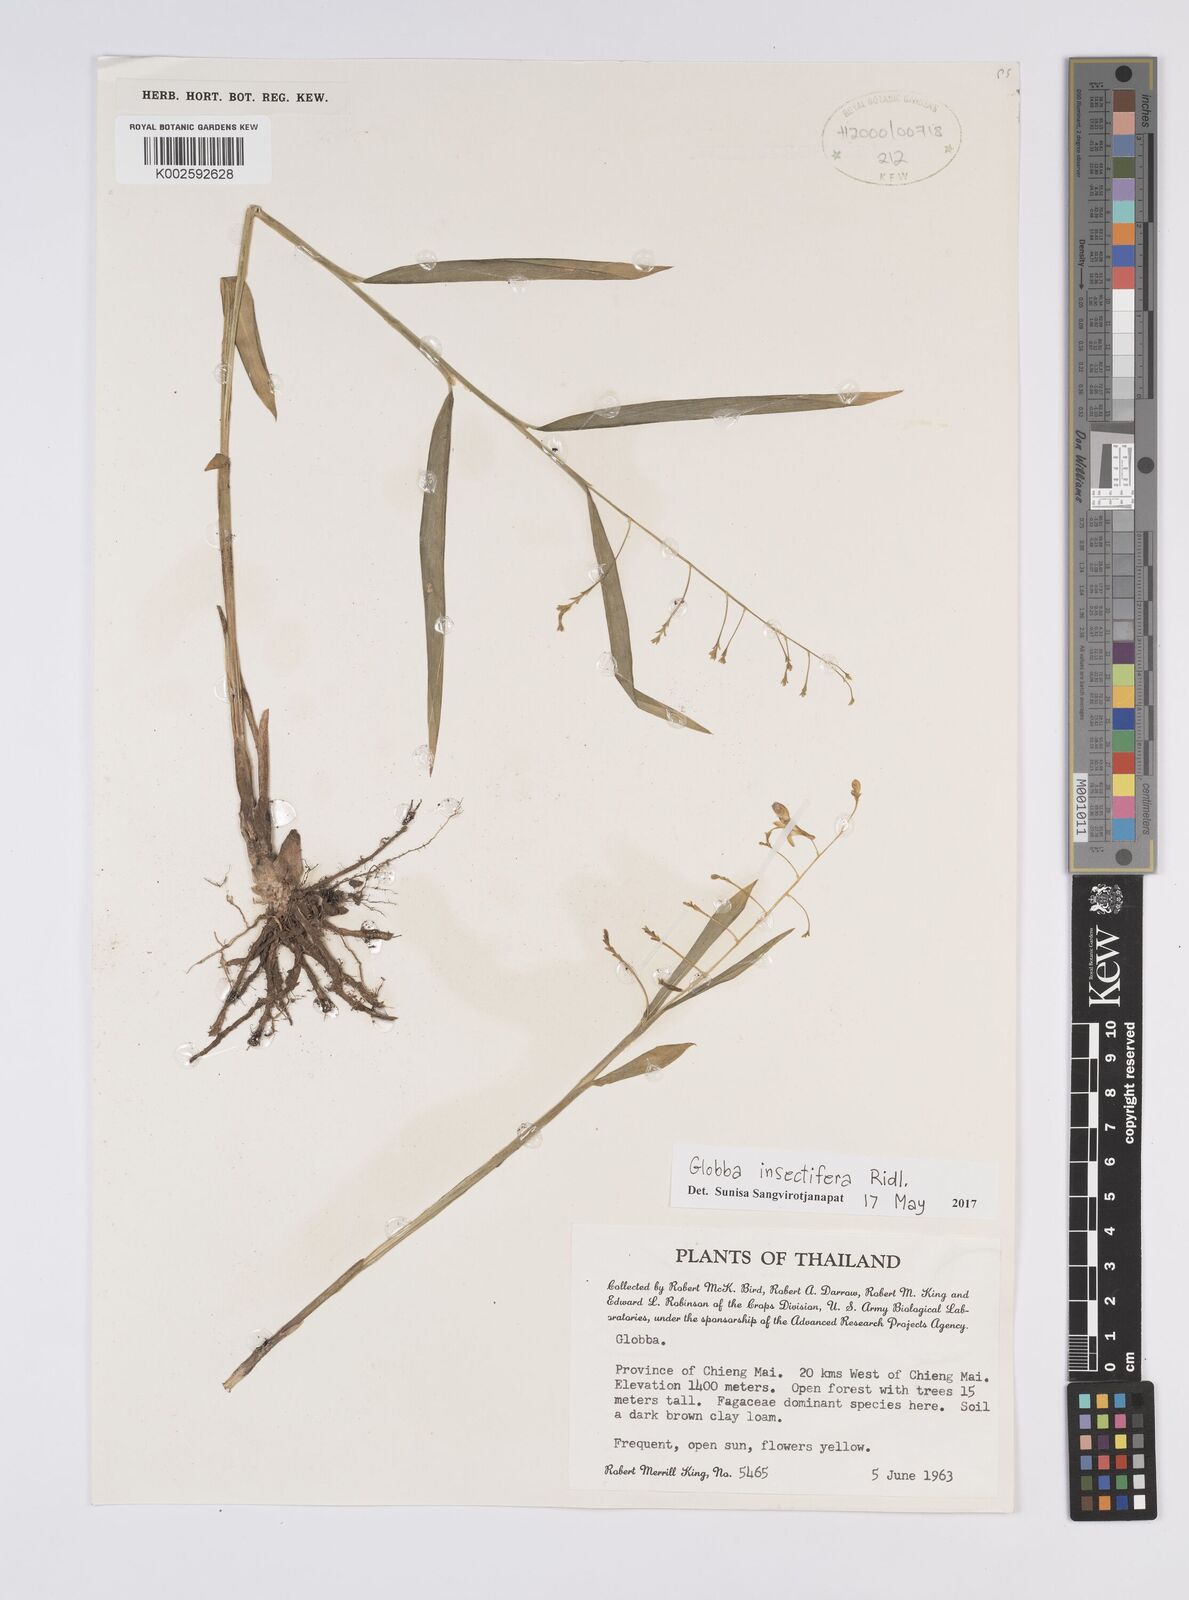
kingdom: Plantae
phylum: Tracheophyta
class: Liliopsida
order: Zingiberales
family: Zingiberaceae
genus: Globba
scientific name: Globba insectifera
